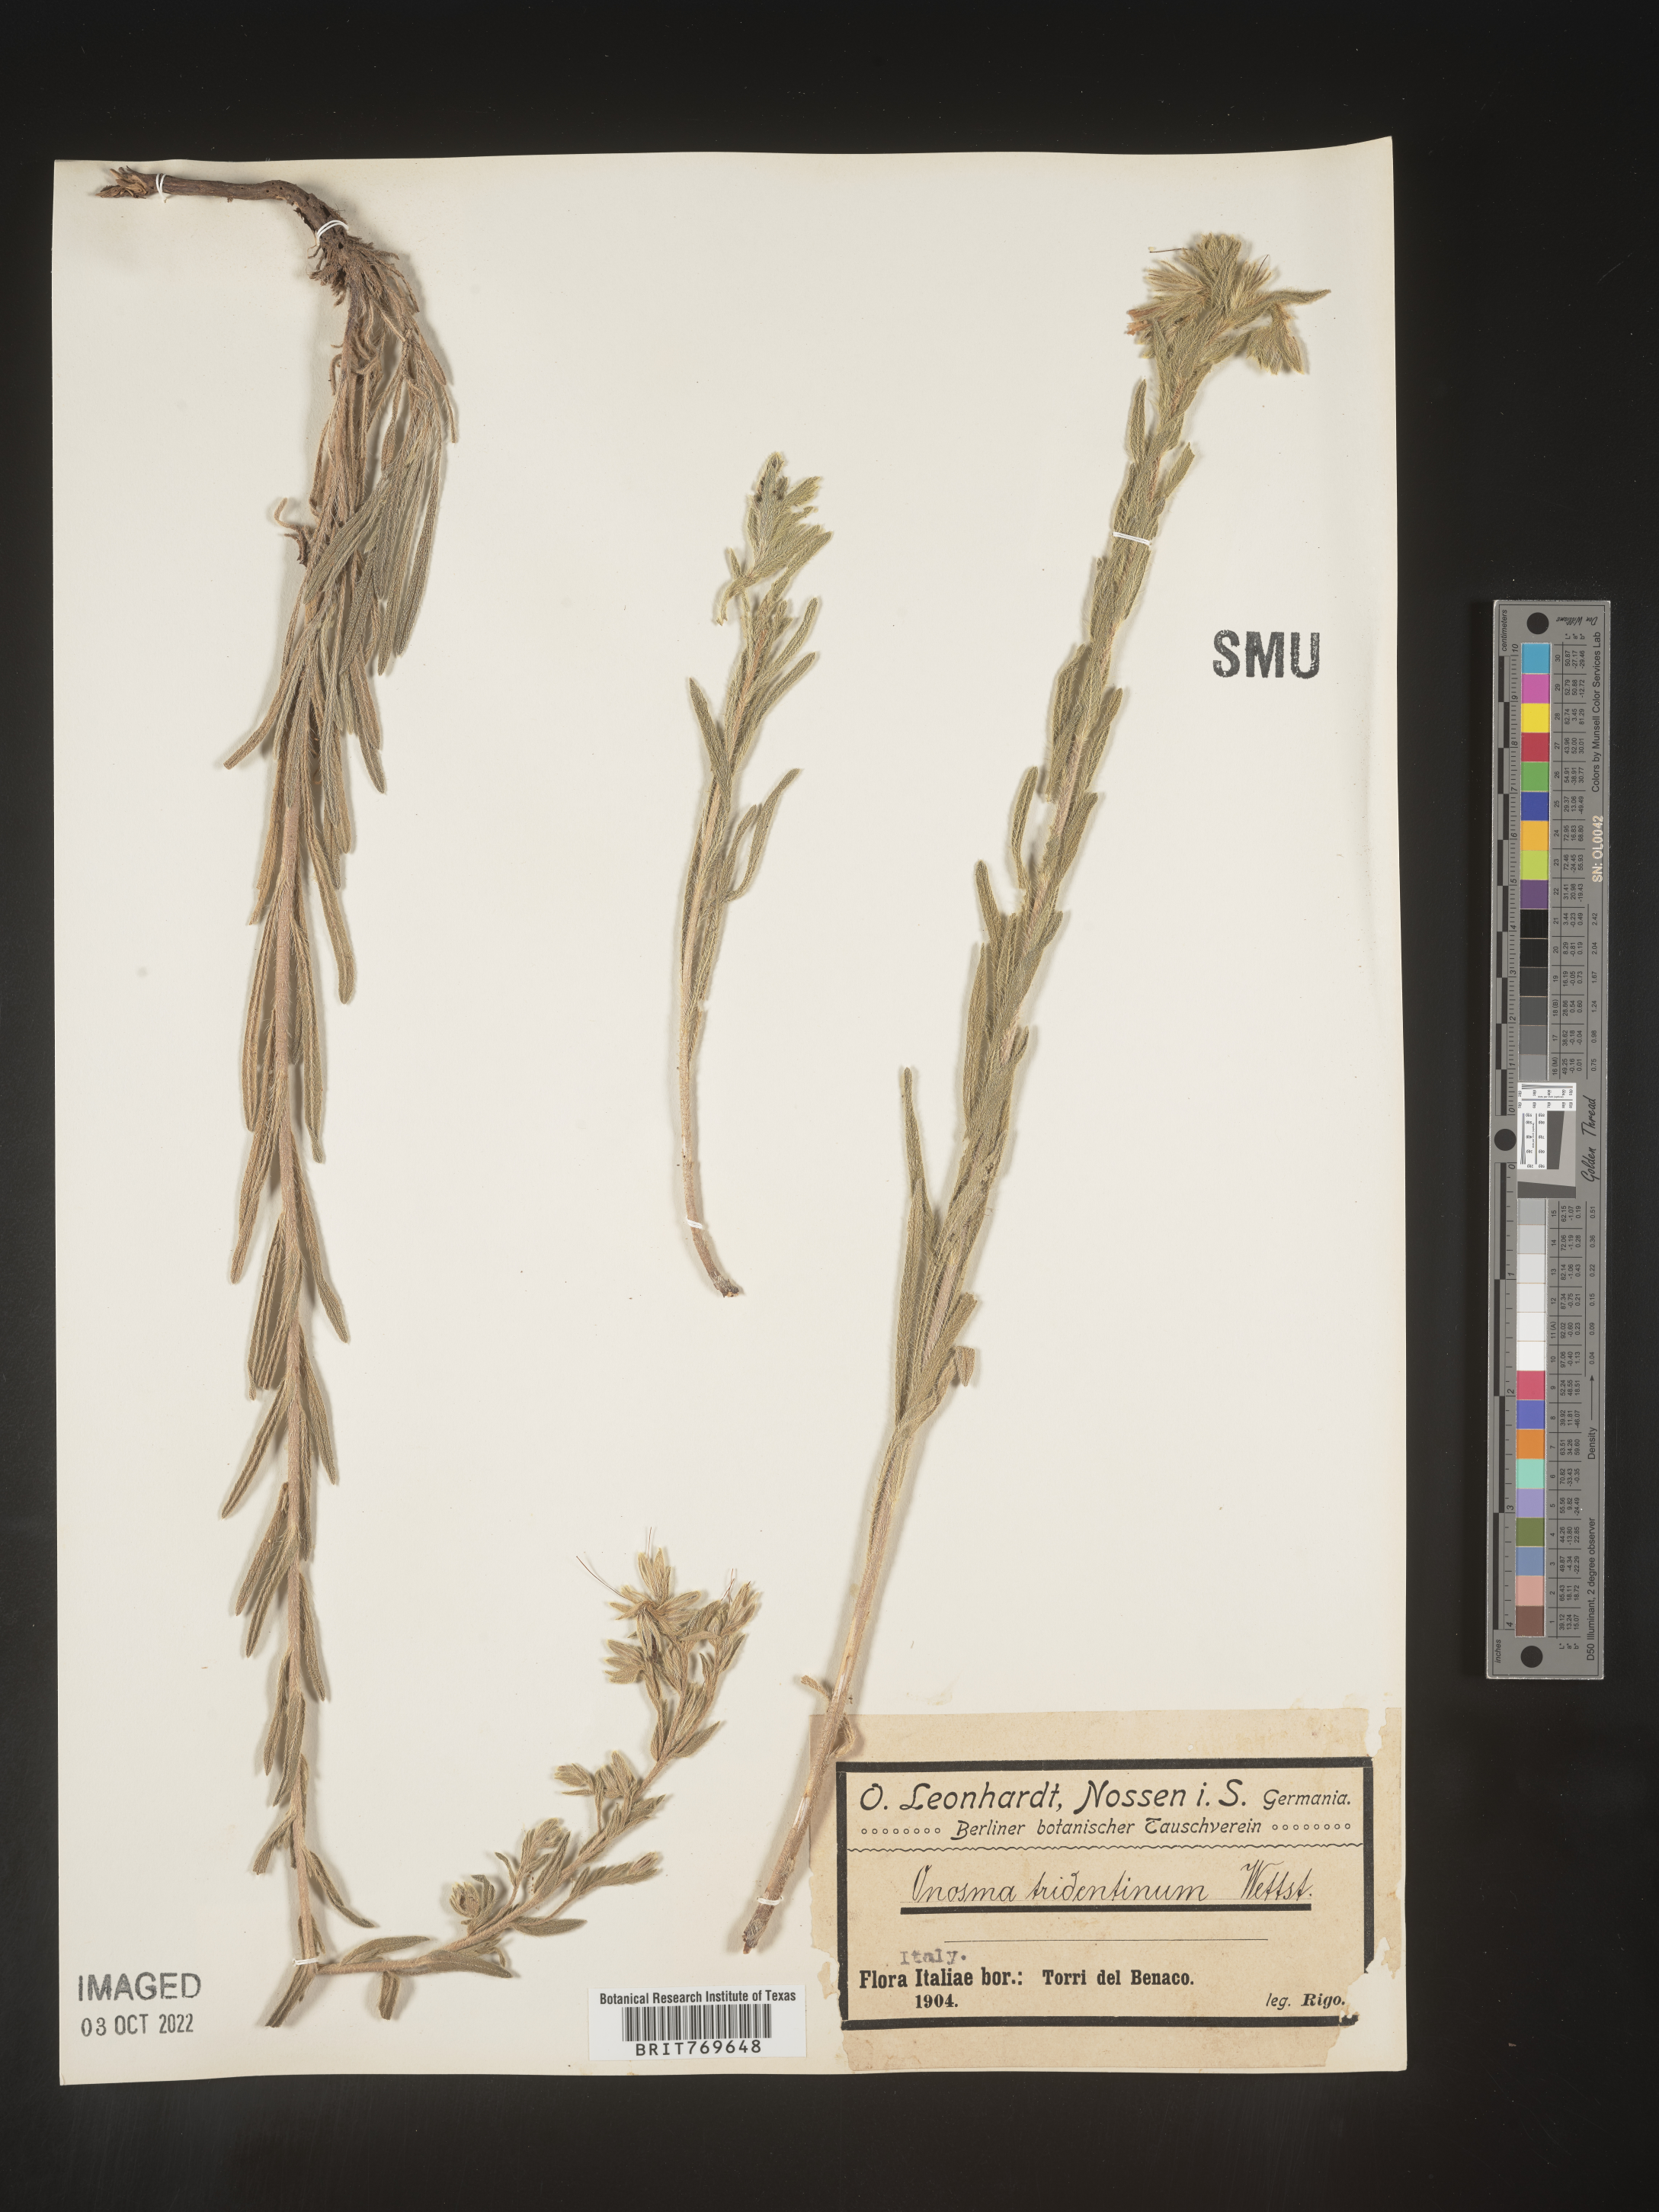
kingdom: Plantae
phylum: Tracheophyta
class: Magnoliopsida
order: Boraginales
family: Boraginaceae
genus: Onosma
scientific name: Onosma
